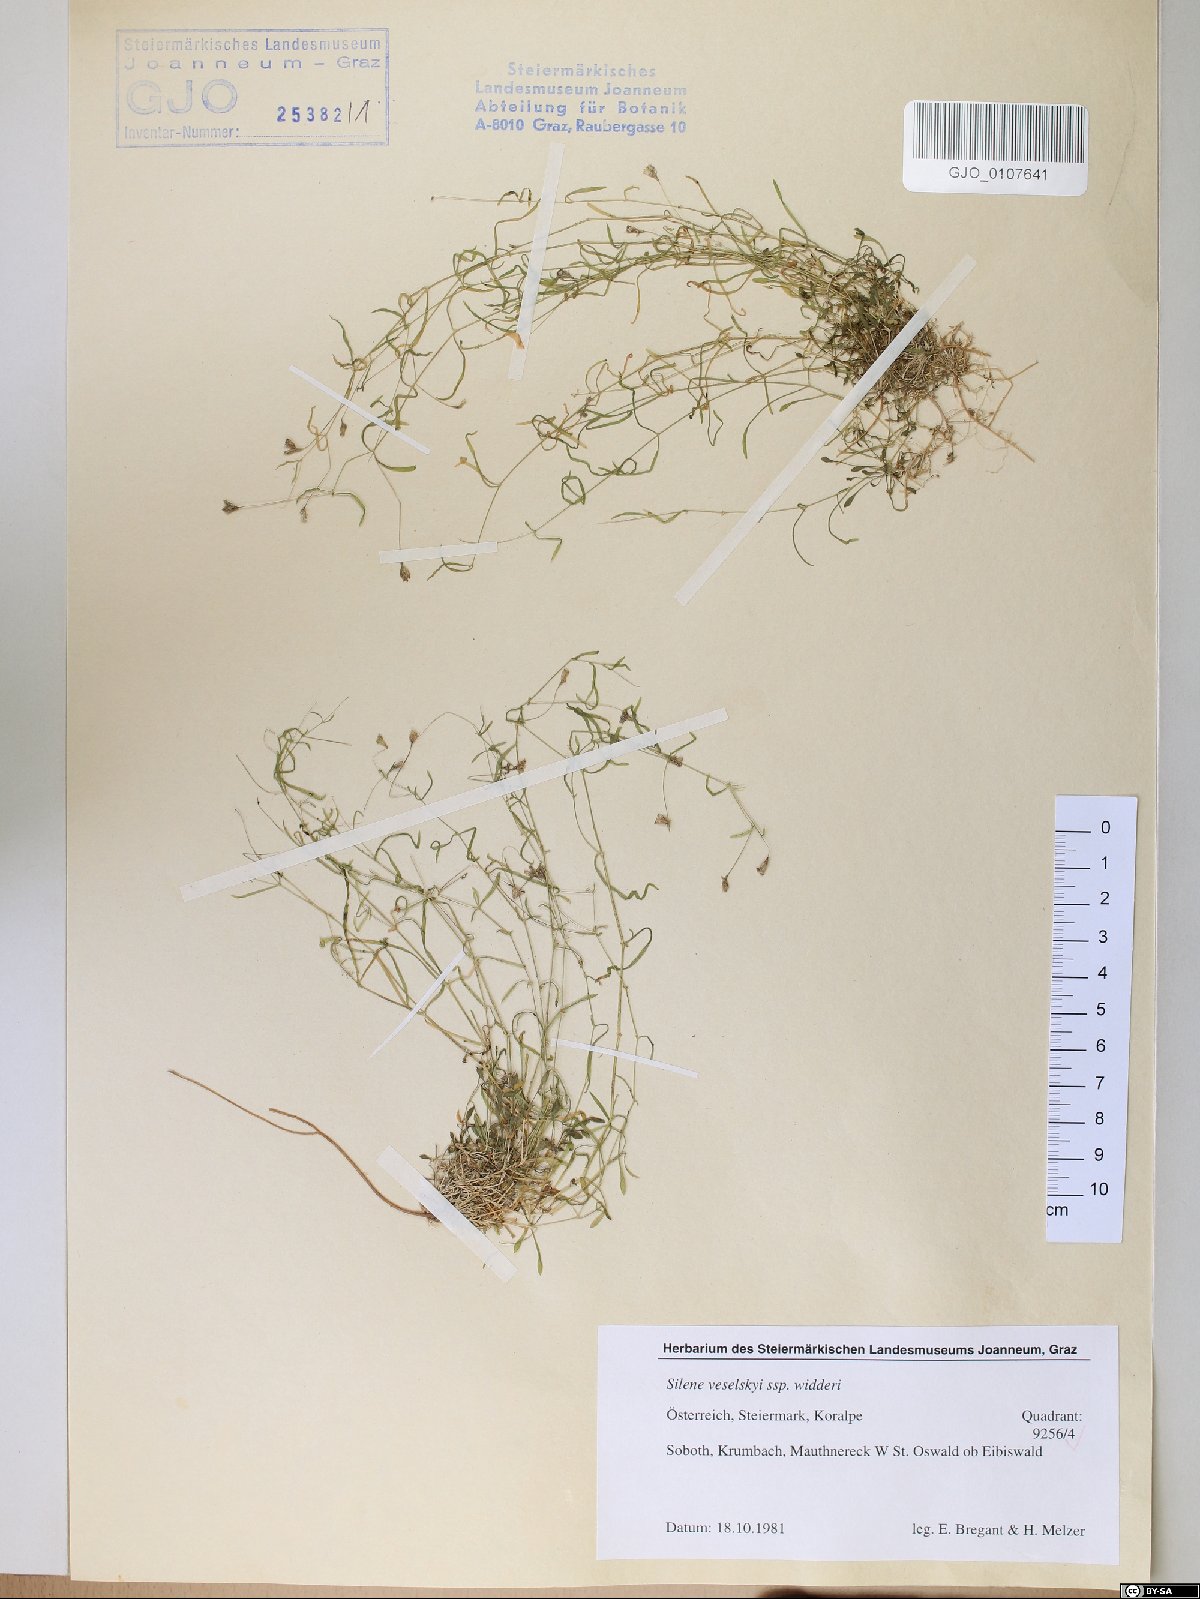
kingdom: Plantae
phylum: Tracheophyta
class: Magnoliopsida
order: Caryophyllales
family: Caryophyllaceae
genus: Heliosperma
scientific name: Heliosperma veselskyi
